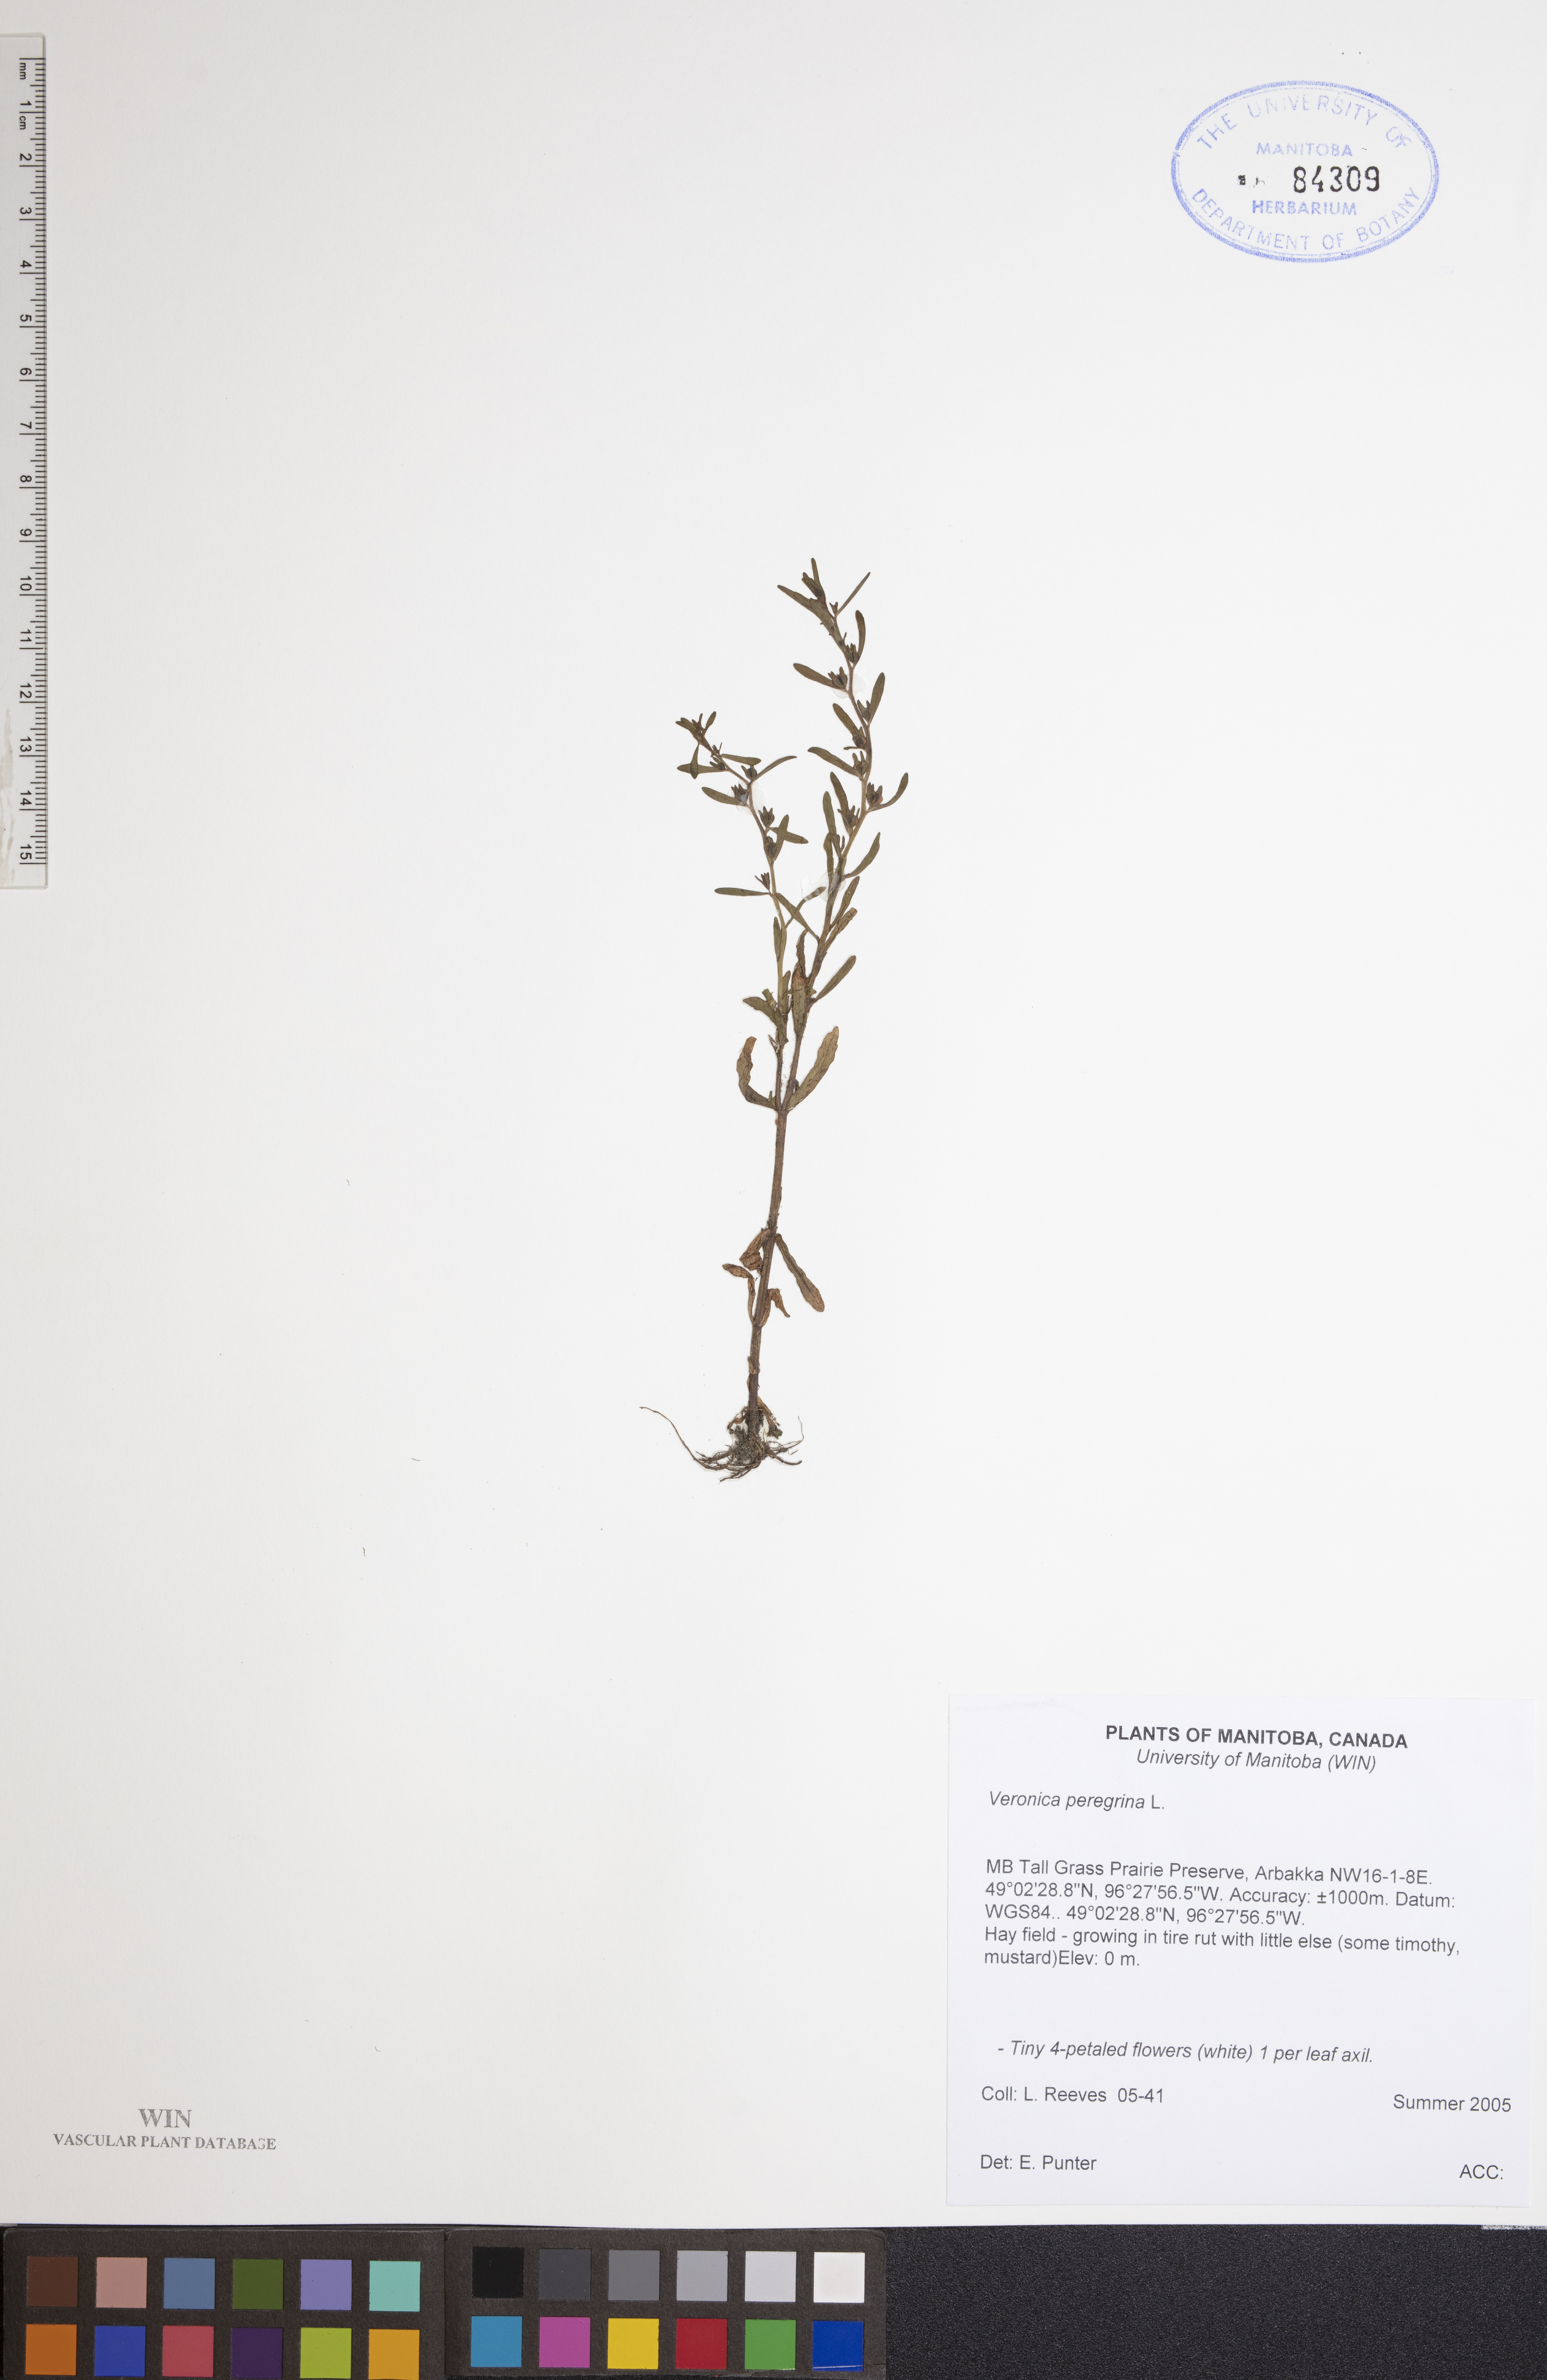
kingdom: Plantae
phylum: Tracheophyta
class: Magnoliopsida
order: Lamiales
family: Plantaginaceae
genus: Veronica
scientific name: Veronica peregrina
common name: Neckweed
